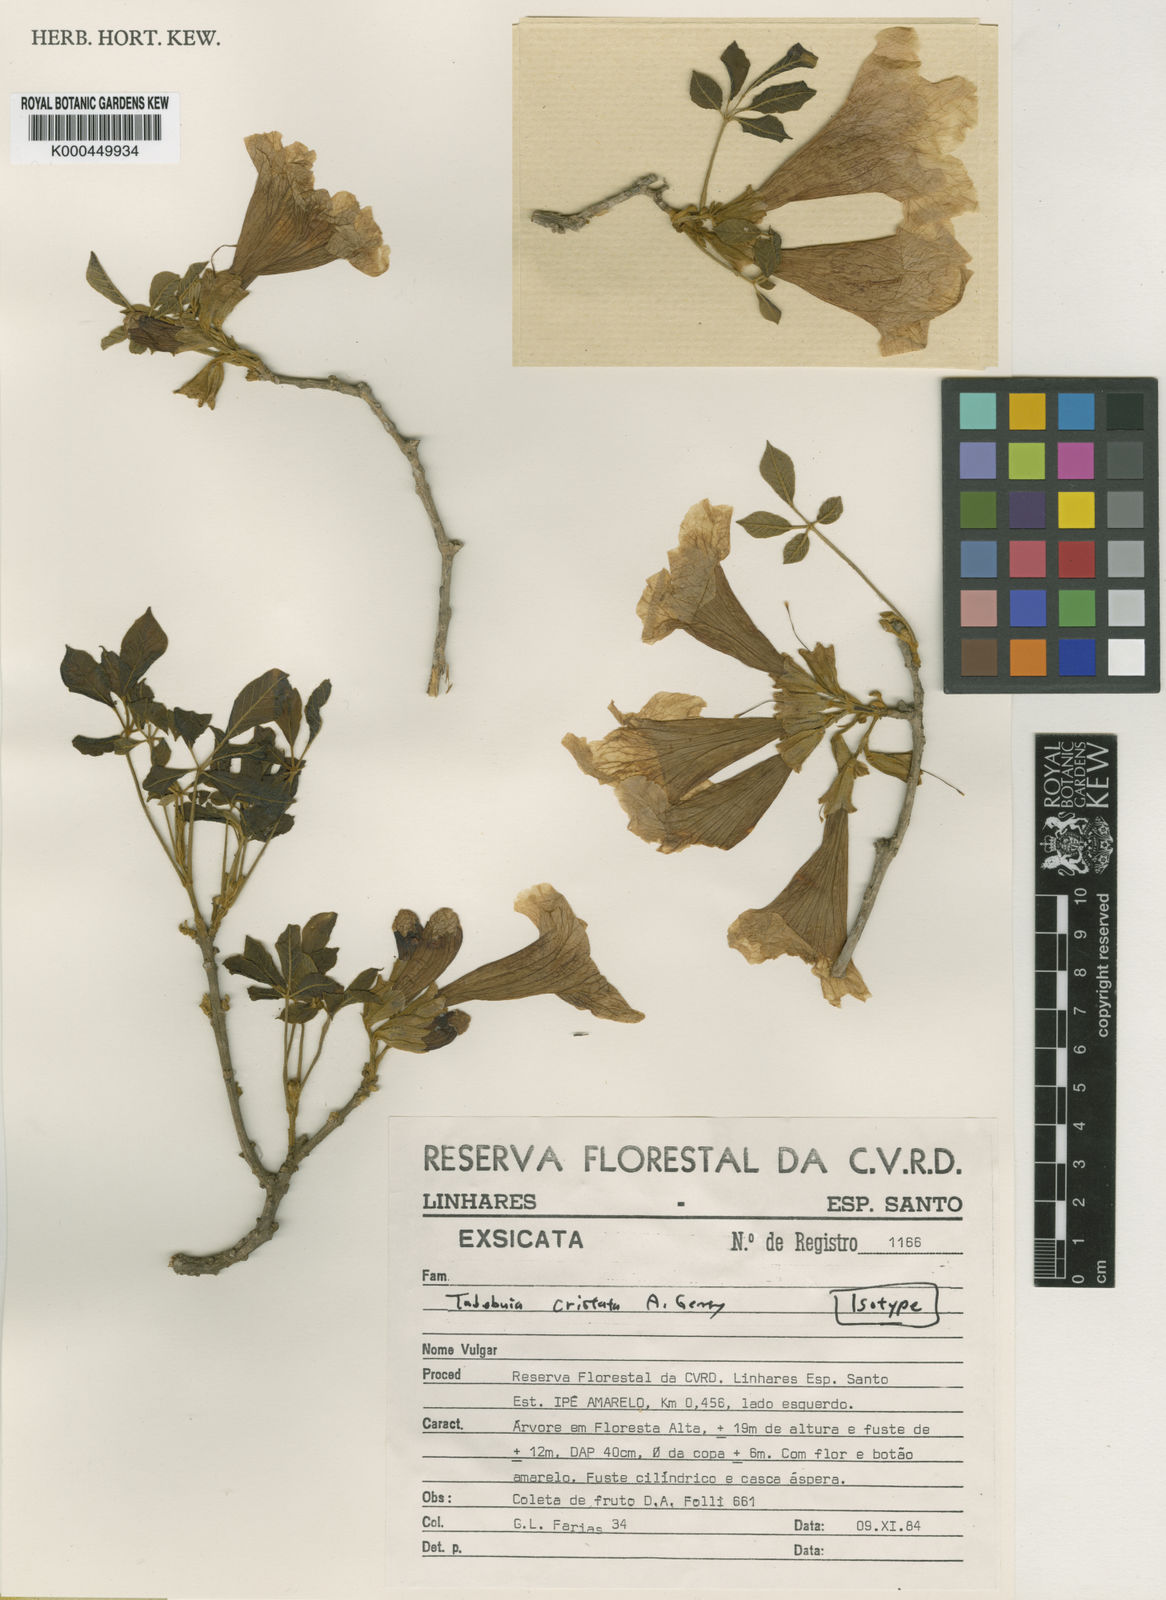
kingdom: Plantae
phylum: Tracheophyta
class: Magnoliopsida
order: Lamiales
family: Bignoniaceae
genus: Handroanthus
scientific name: Handroanthus cristatus
